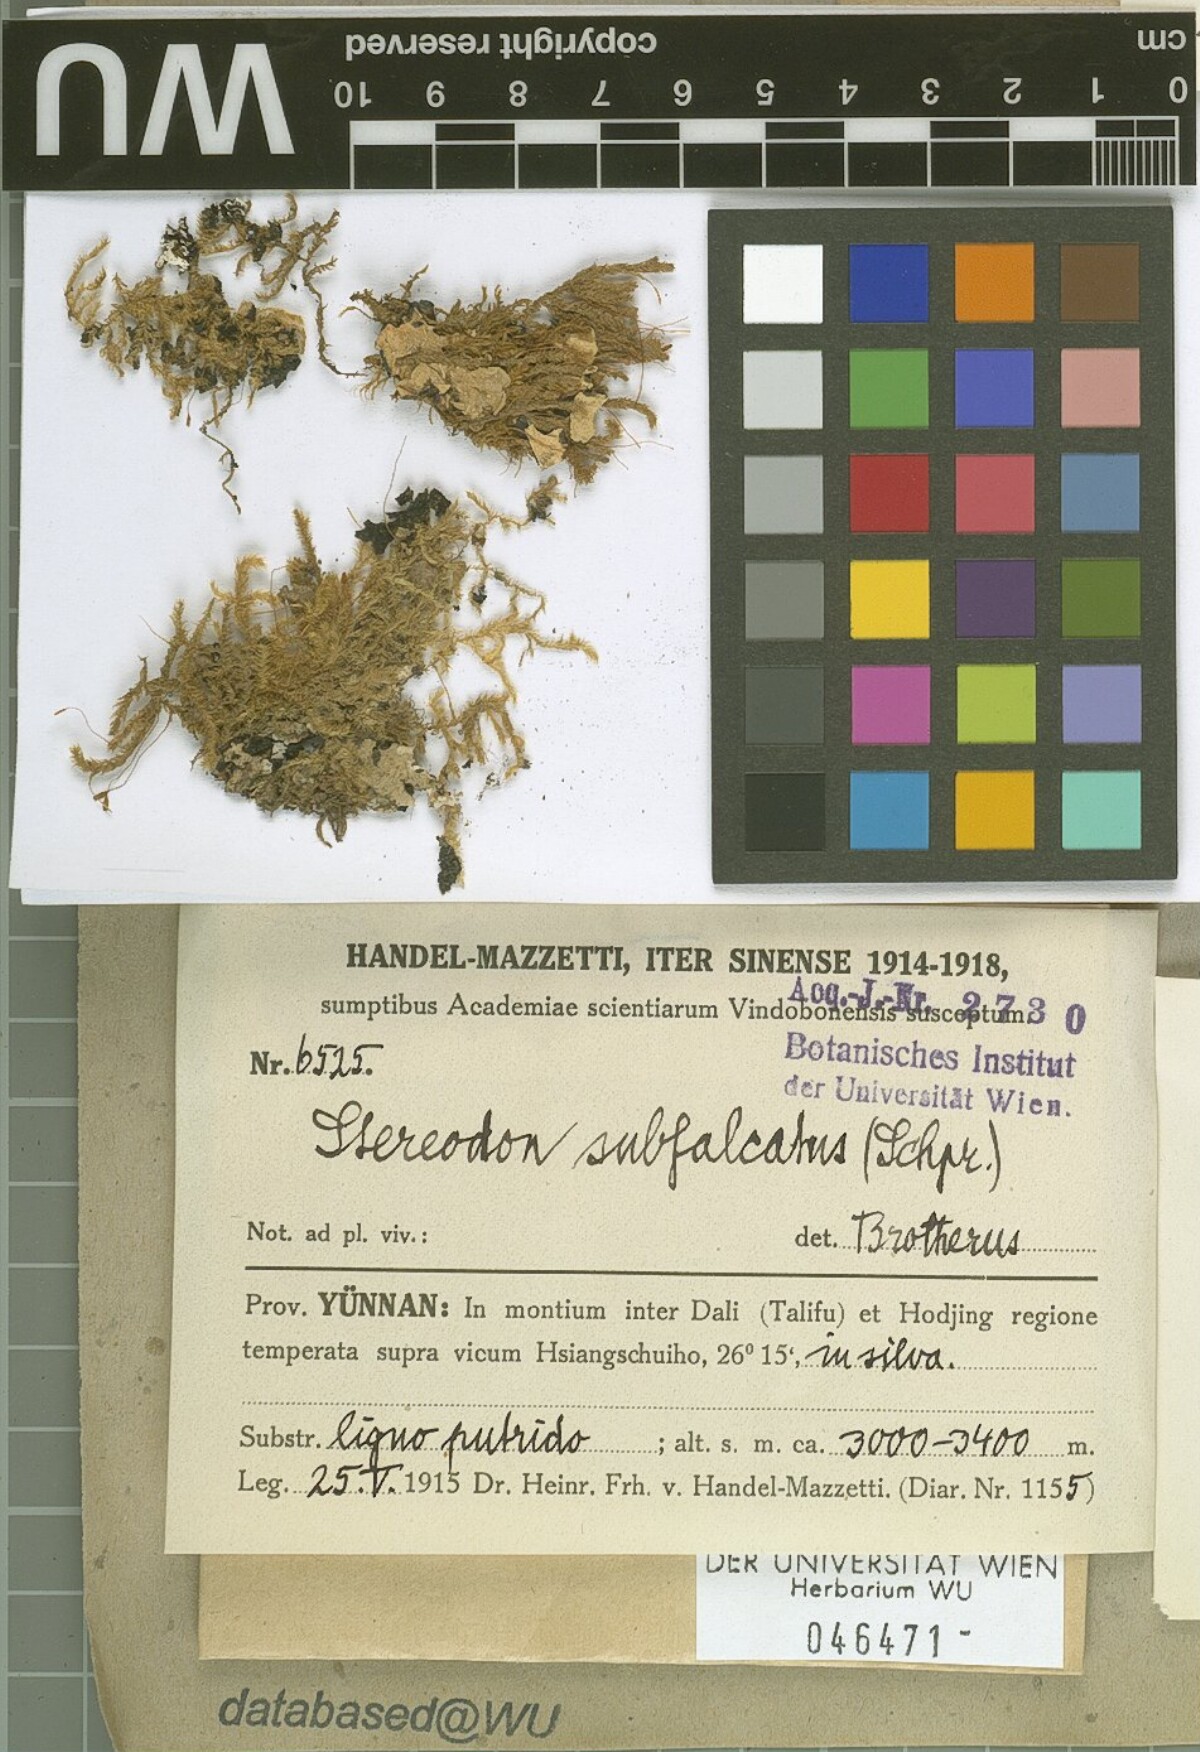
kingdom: Plantae
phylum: Bryophyta
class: Bryopsida
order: Hypnales
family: Pylaisiaceae
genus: Pylaisia
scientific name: Pylaisia falcata
